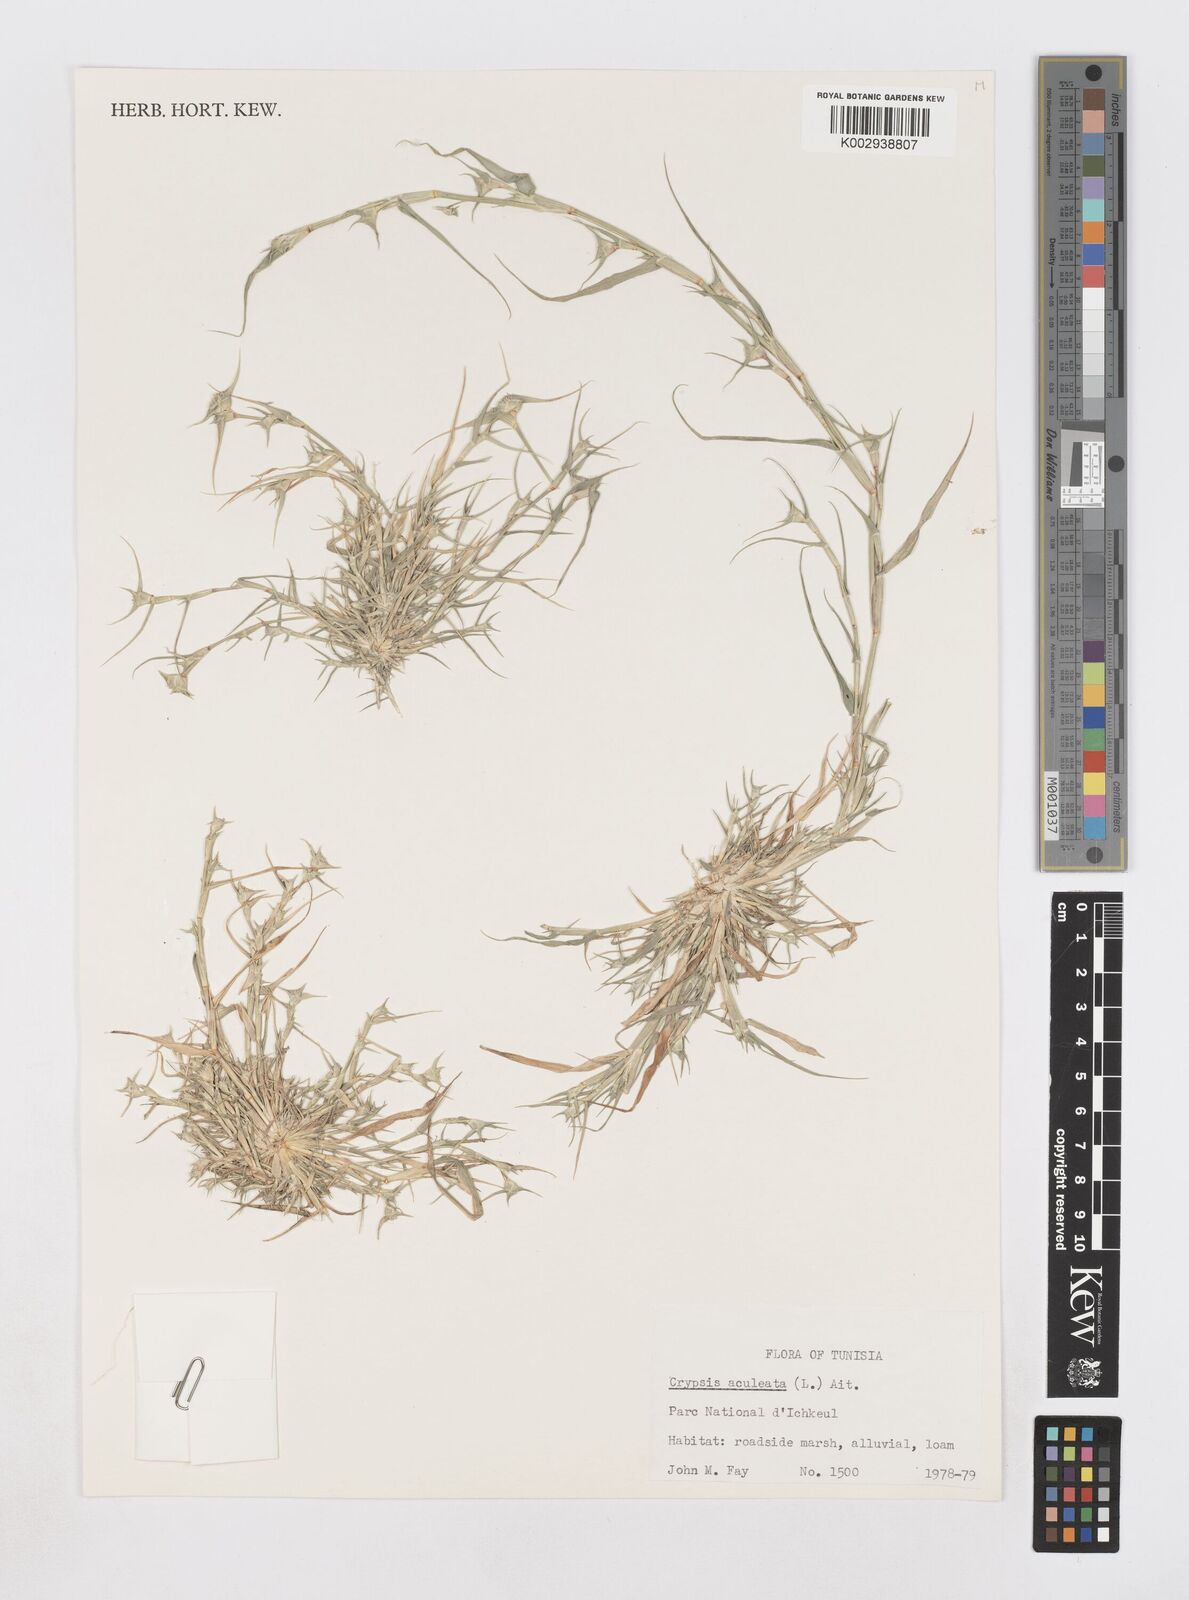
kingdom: Plantae
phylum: Tracheophyta
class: Liliopsida
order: Poales
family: Poaceae
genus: Sporobolus
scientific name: Sporobolus aculeatus
